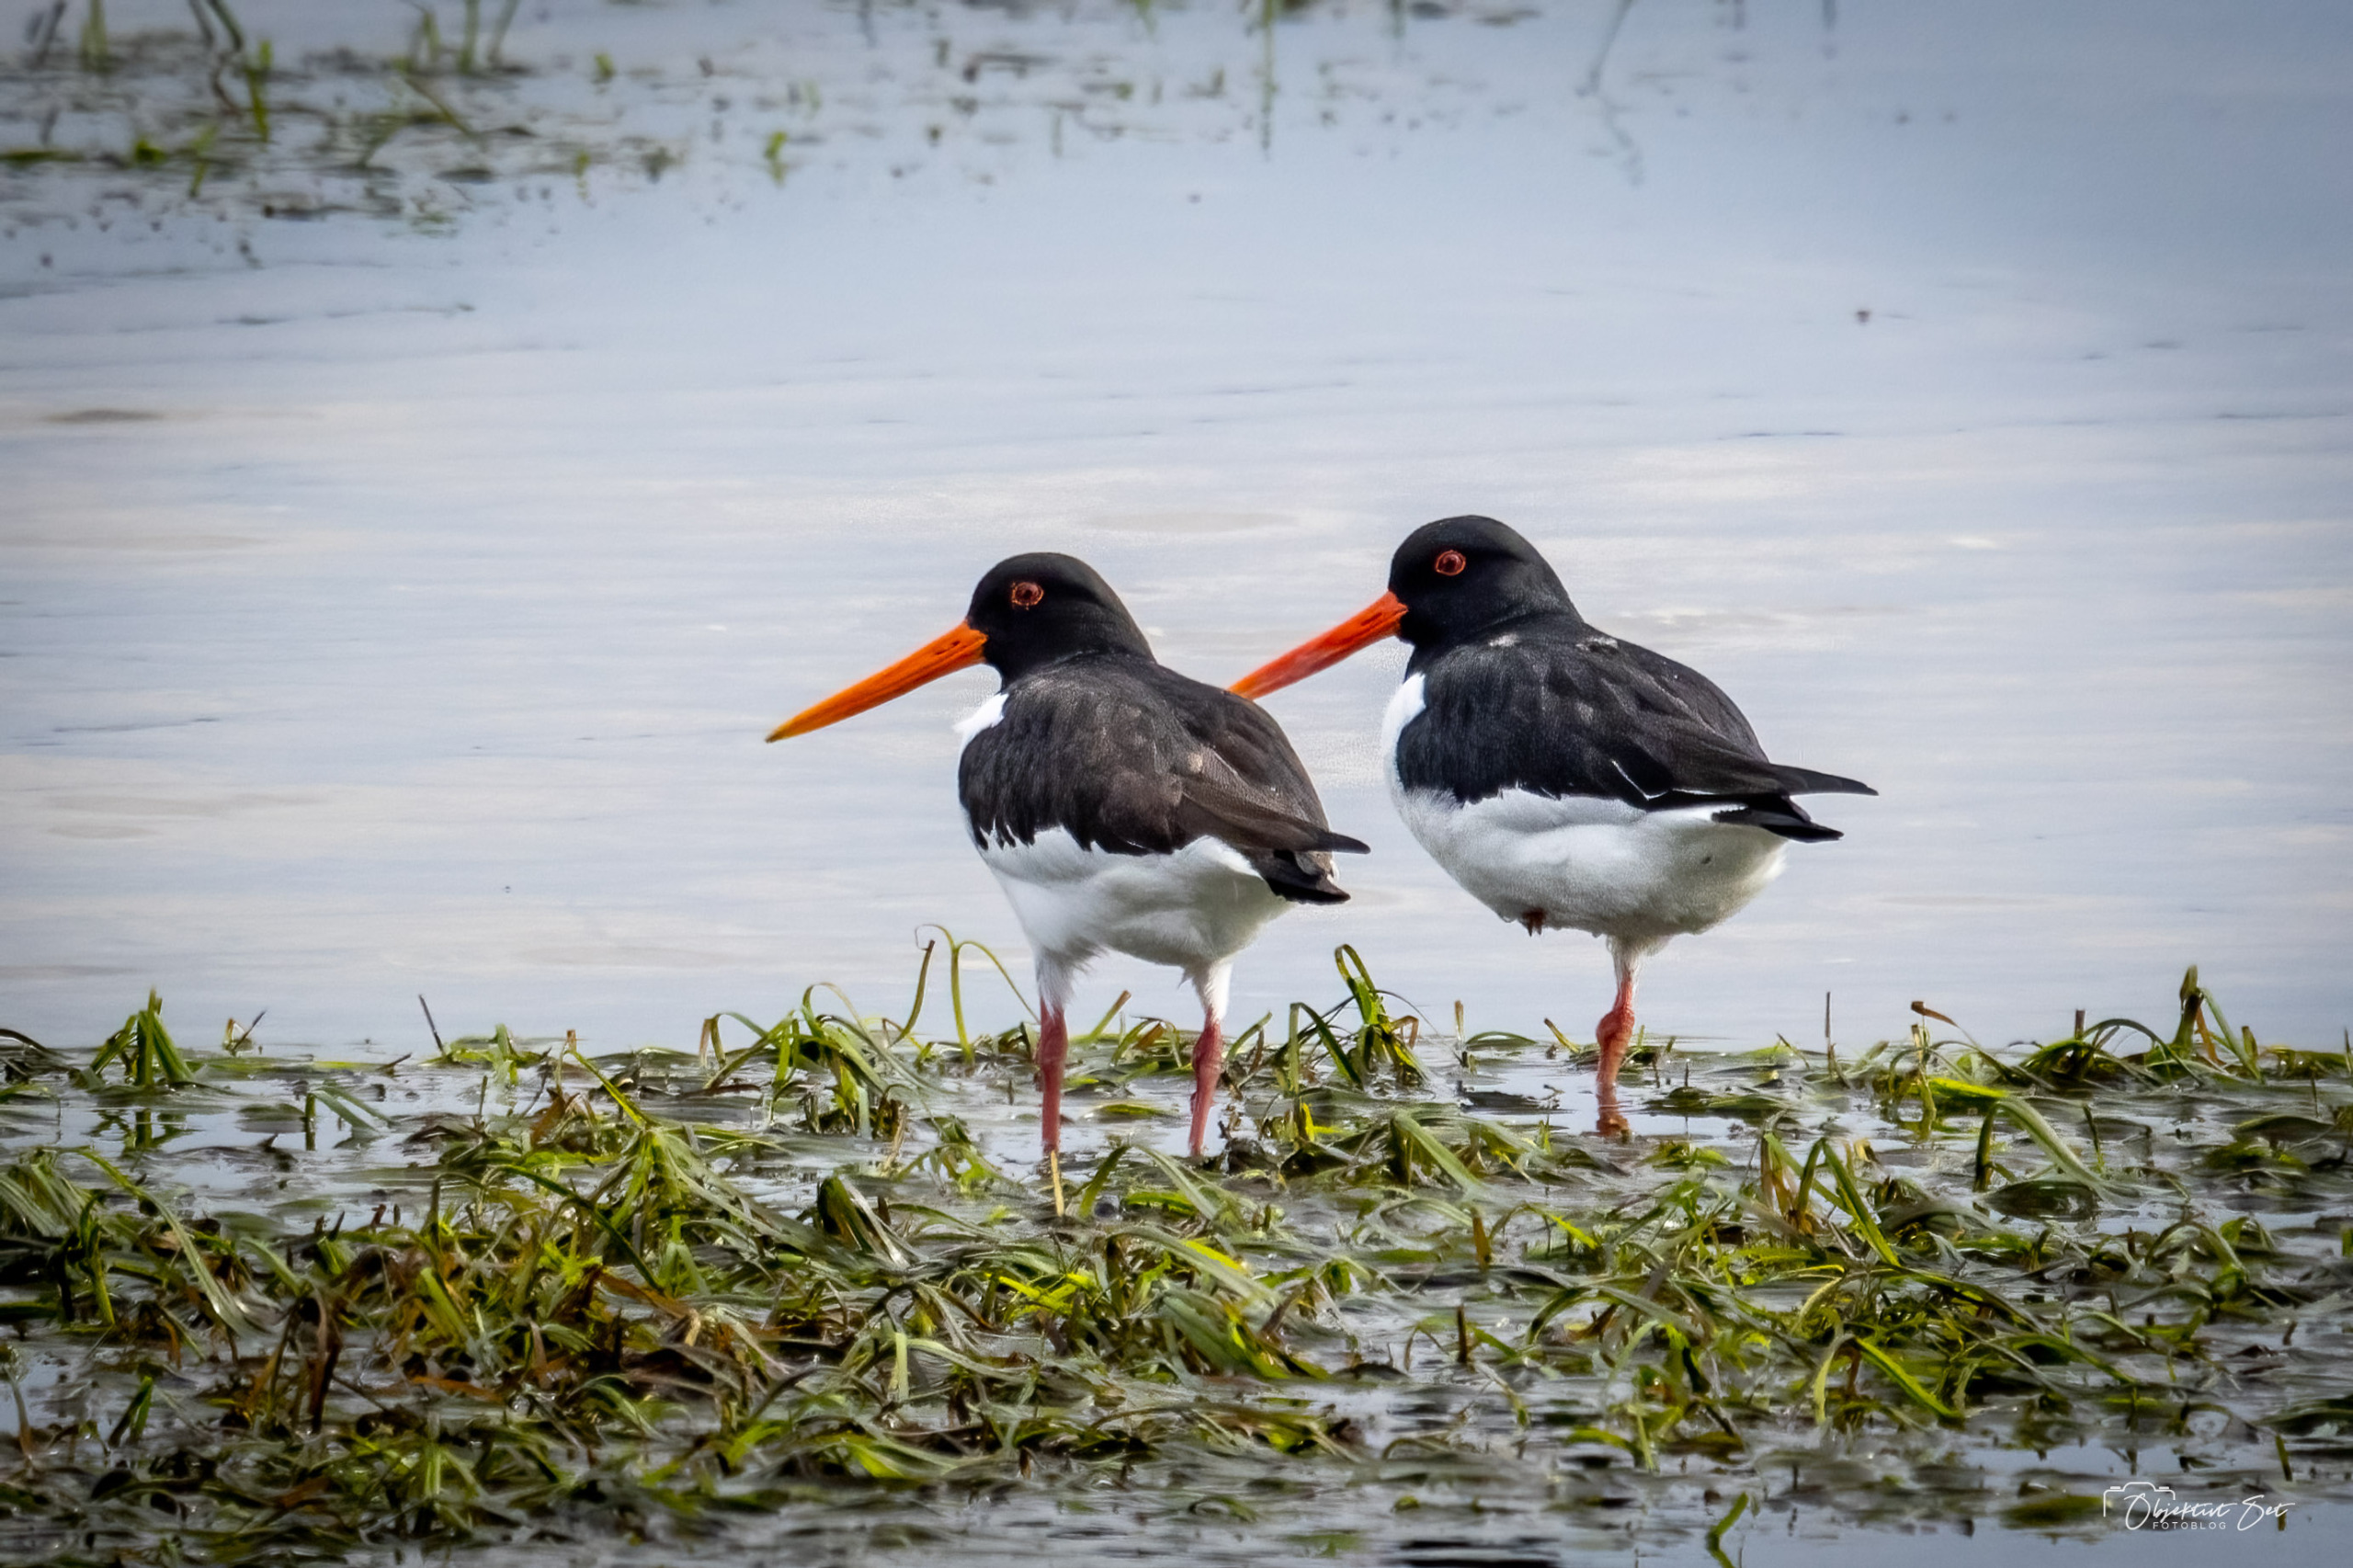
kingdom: Animalia
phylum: Chordata
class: Aves
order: Charadriiformes
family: Haematopodidae
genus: Haematopus
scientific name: Haematopus ostralegus
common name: Strandskade
